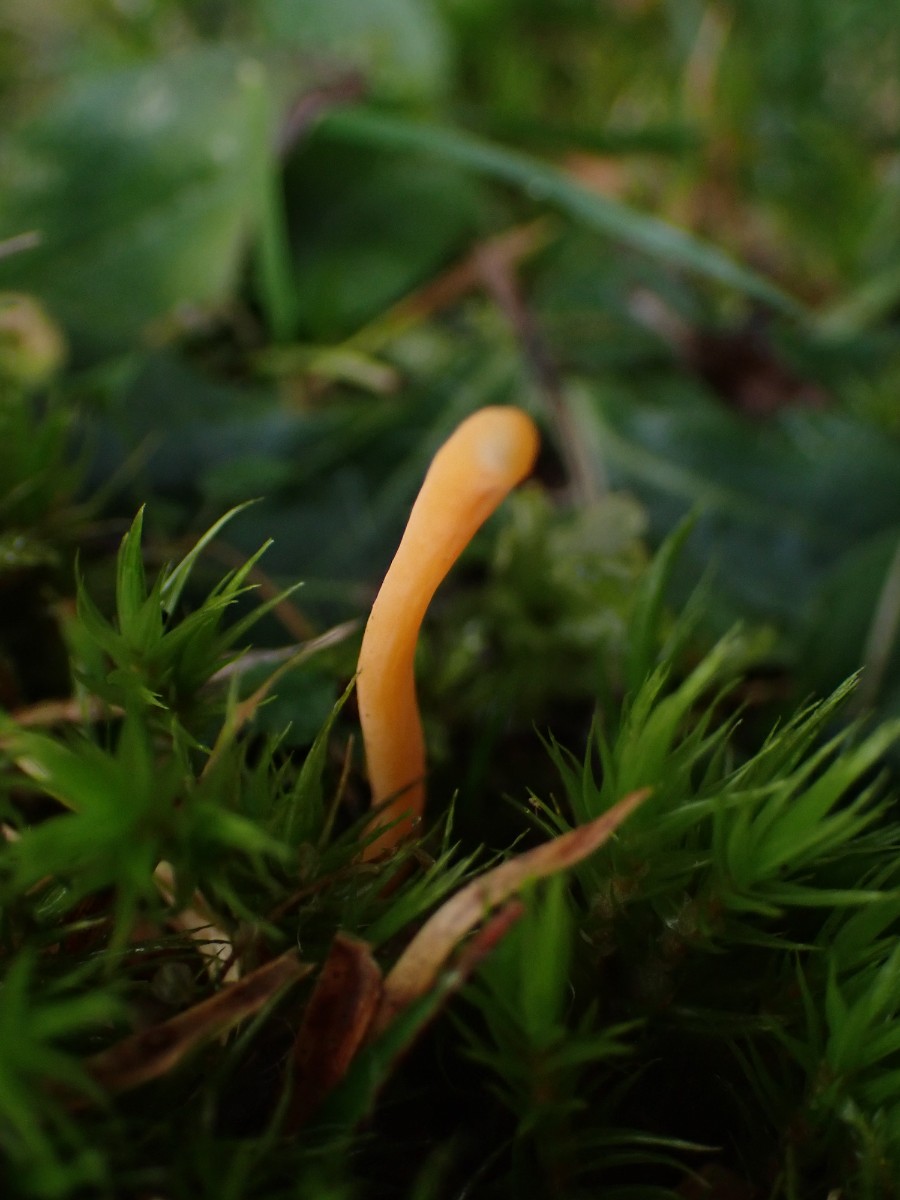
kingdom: Fungi
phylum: Basidiomycota
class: Agaricomycetes
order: Agaricales
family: Clavariaceae
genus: Clavulinopsis
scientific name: Clavulinopsis
